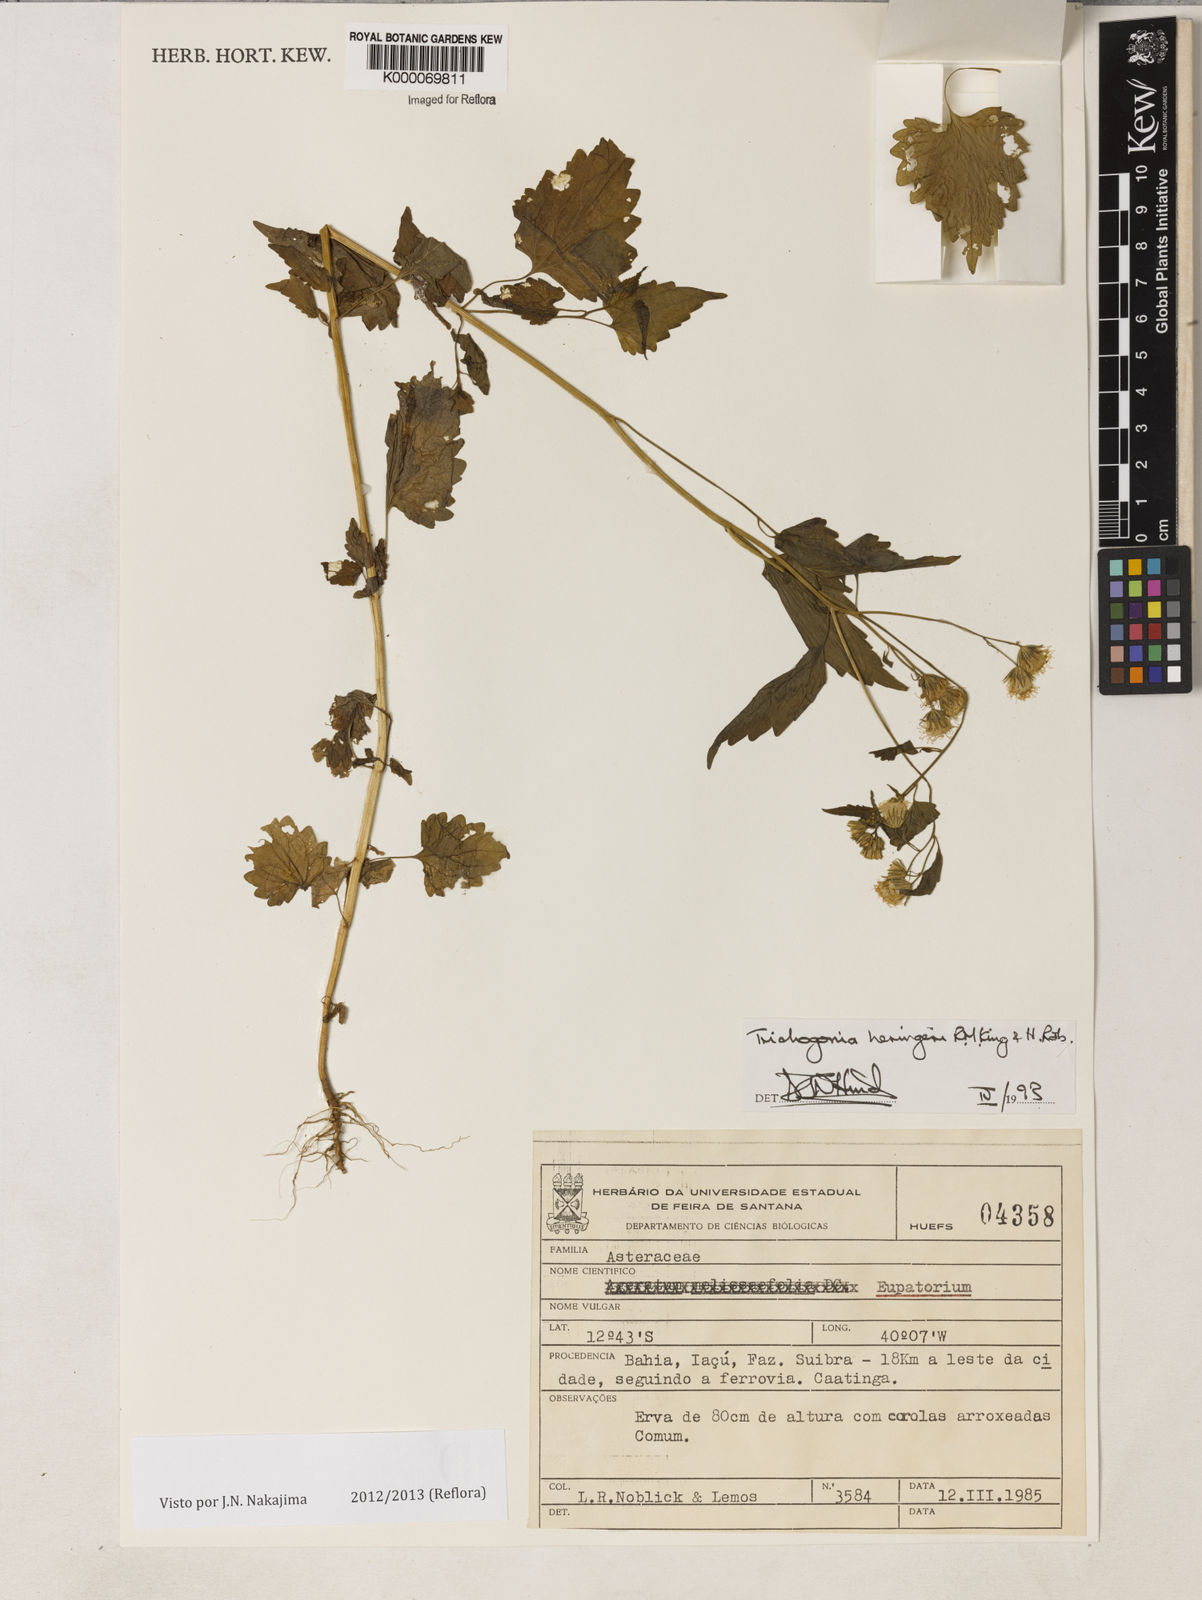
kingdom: Plantae
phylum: Tracheophyta
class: Magnoliopsida
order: Asterales
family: Asteraceae
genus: Trichogonia
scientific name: Trichogonia heringeri
